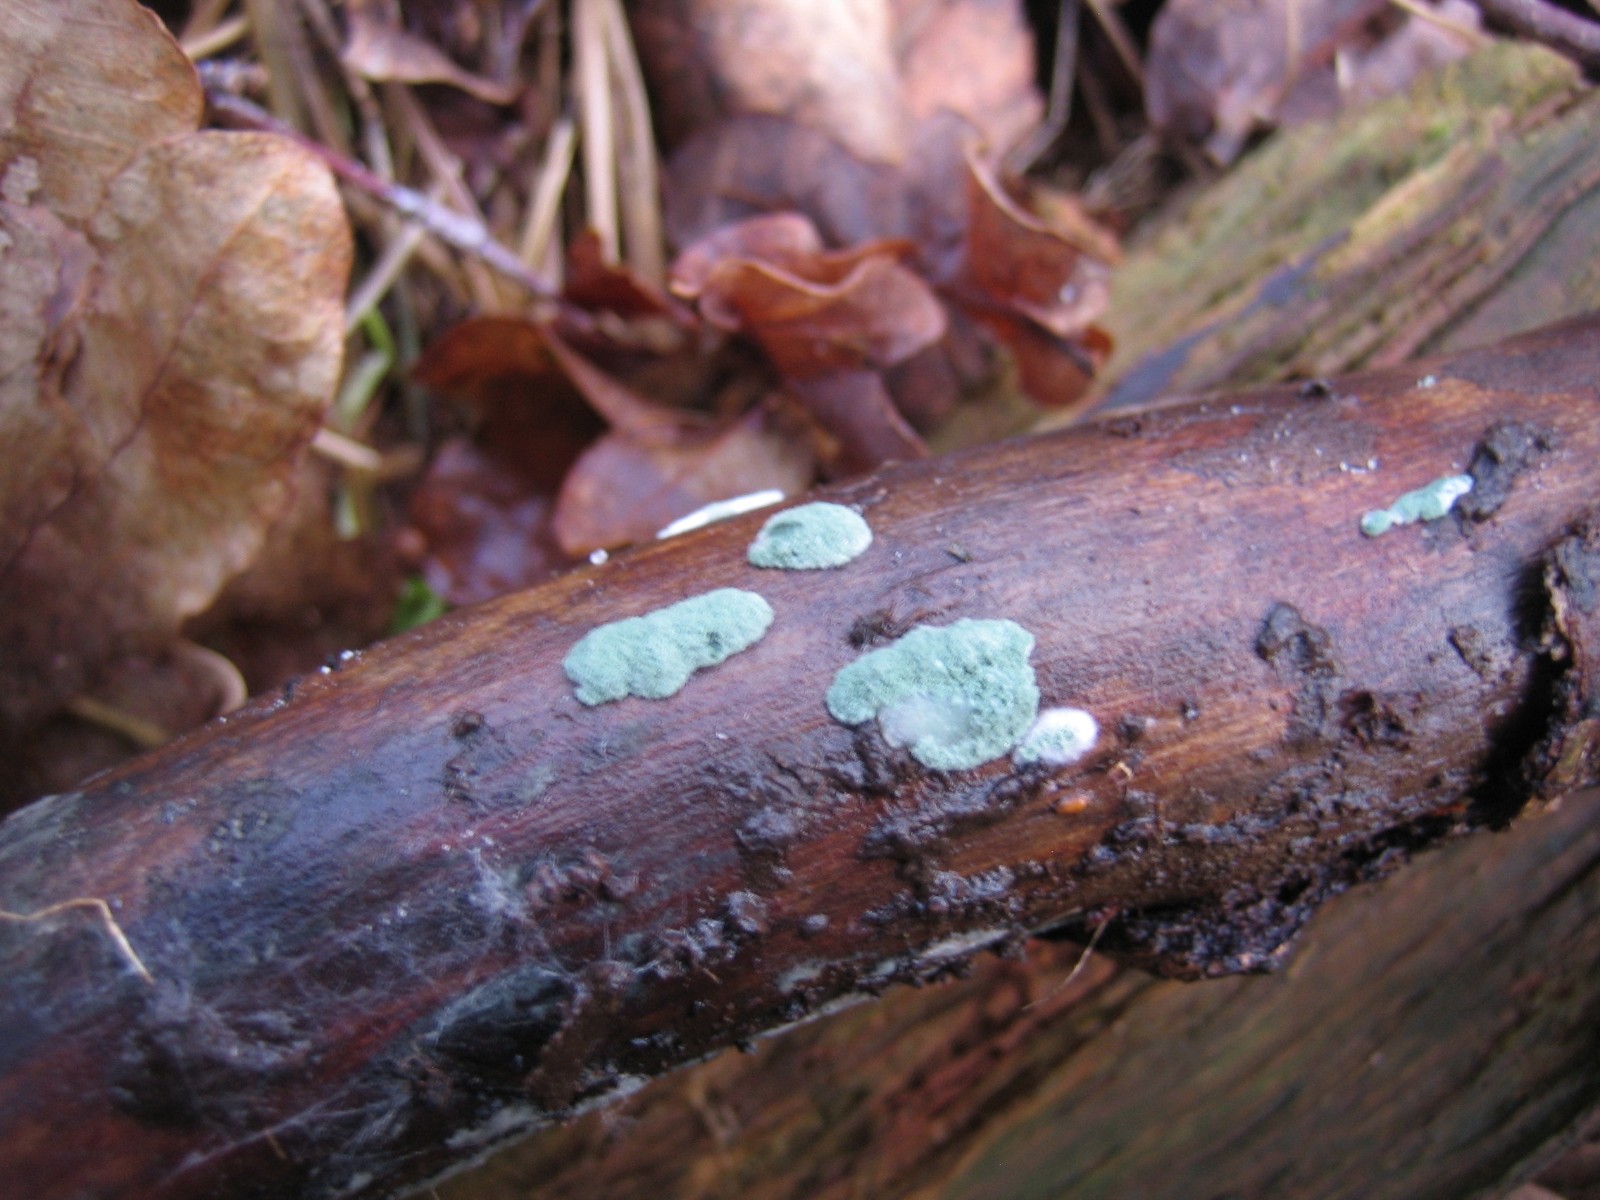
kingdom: Fungi
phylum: Ascomycota
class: Sordariomycetes
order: Hypocreales
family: Hypocreaceae
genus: Trichoderma
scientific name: Trichoderma
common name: kødkerne
